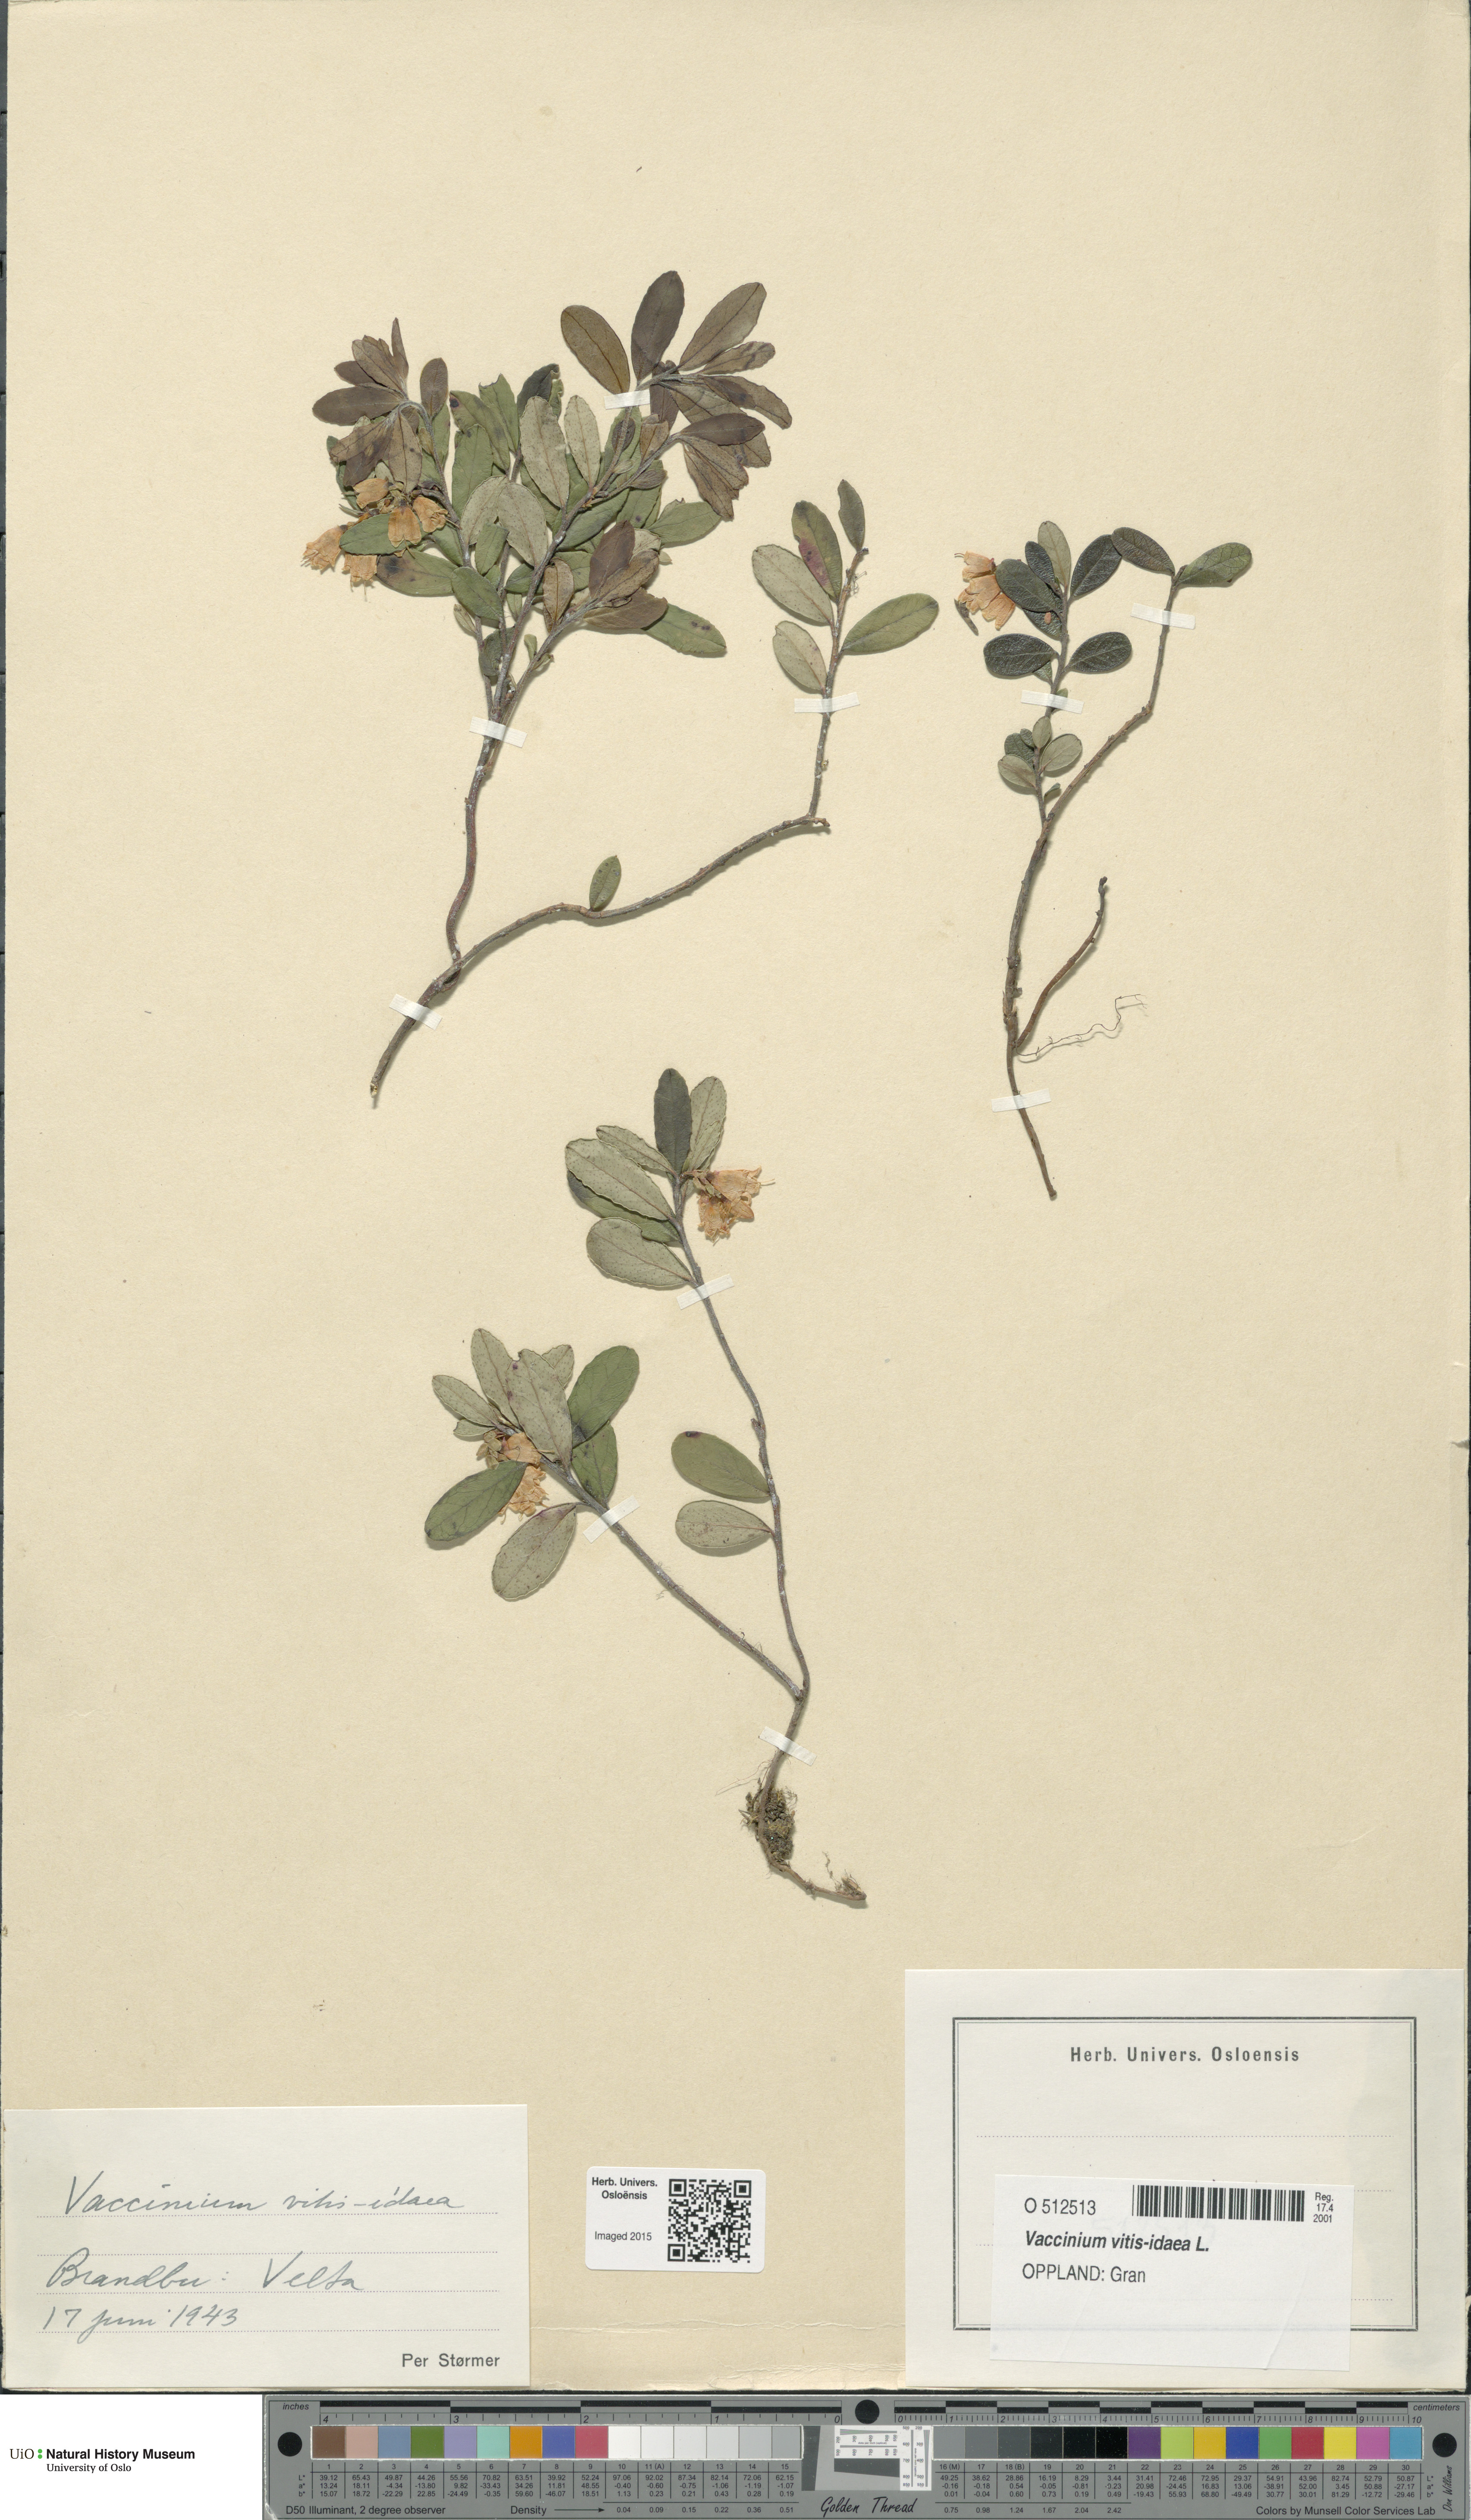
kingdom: Plantae
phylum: Tracheophyta
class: Magnoliopsida
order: Ericales
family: Ericaceae
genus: Vaccinium
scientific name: Vaccinium vitis-idaea
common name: Cowberry
